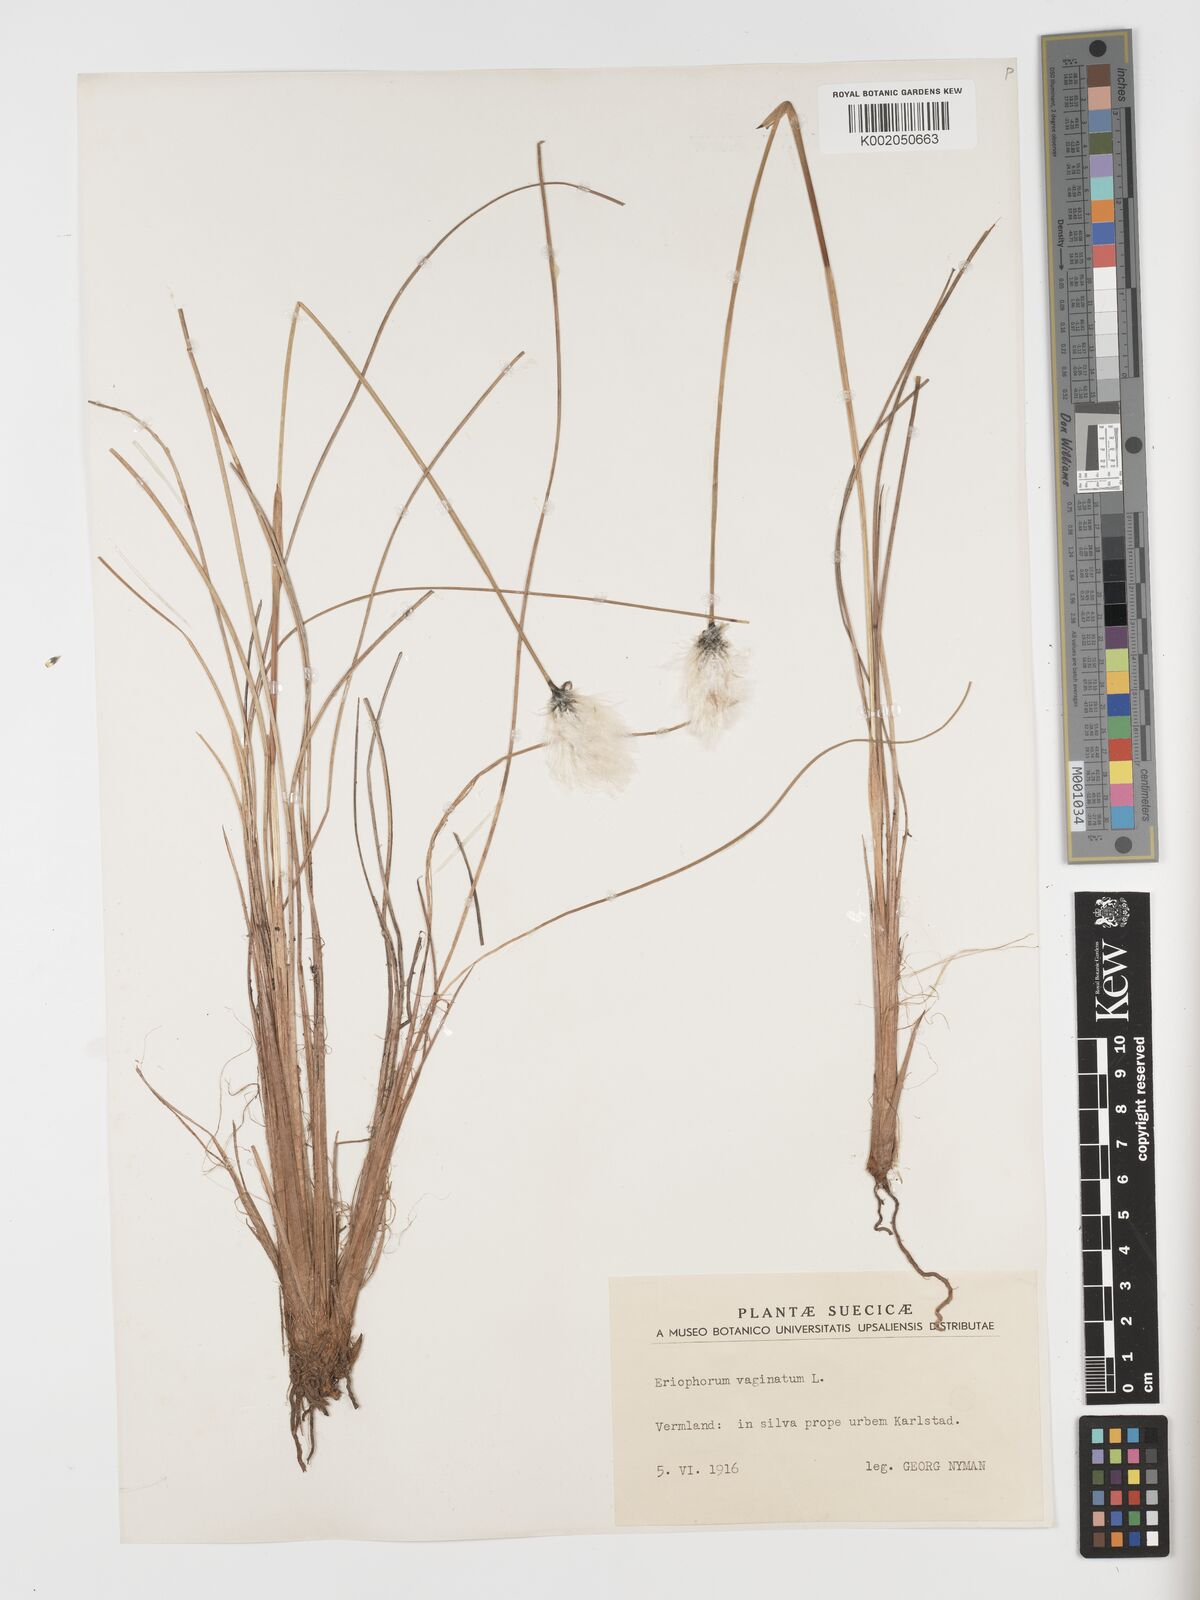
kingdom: Plantae
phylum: Tracheophyta
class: Liliopsida
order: Poales
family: Cyperaceae
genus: Eriophorum
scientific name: Eriophorum vaginatum
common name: Hare's-tail cottongrass
